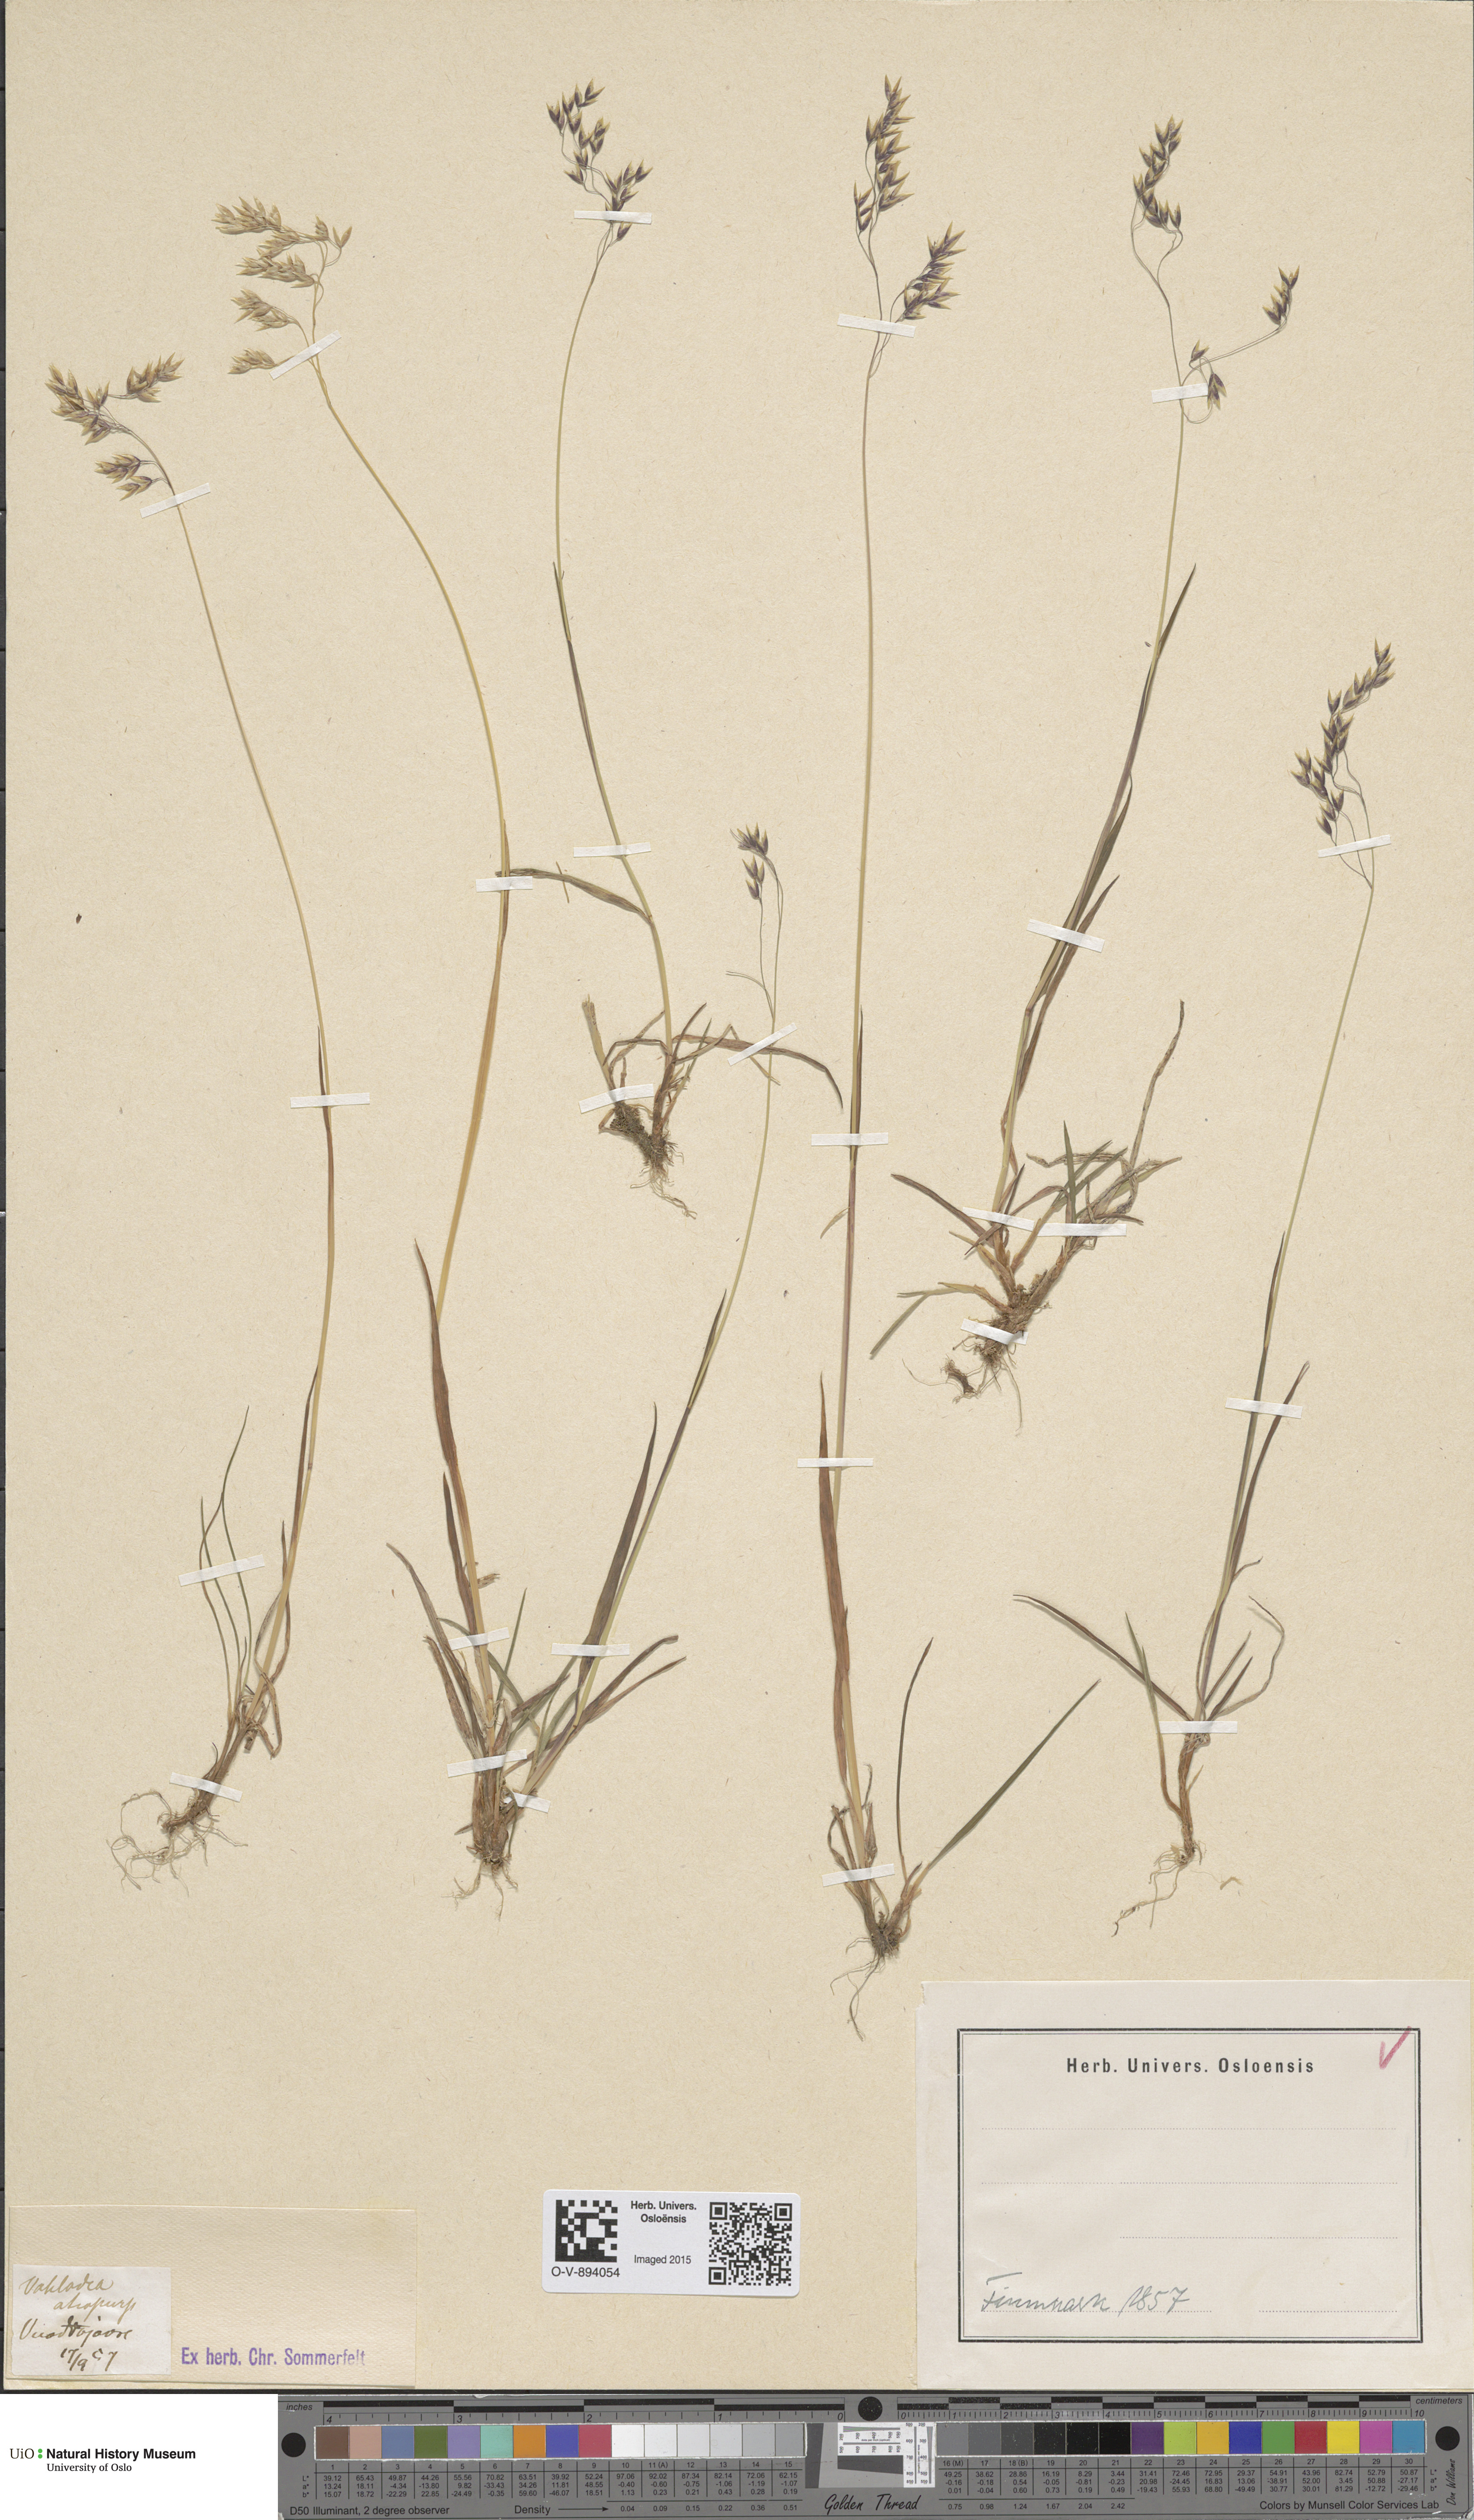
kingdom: Plantae
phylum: Tracheophyta
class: Liliopsida
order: Poales
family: Poaceae
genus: Vahlodea
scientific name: Vahlodea atropurpurea
